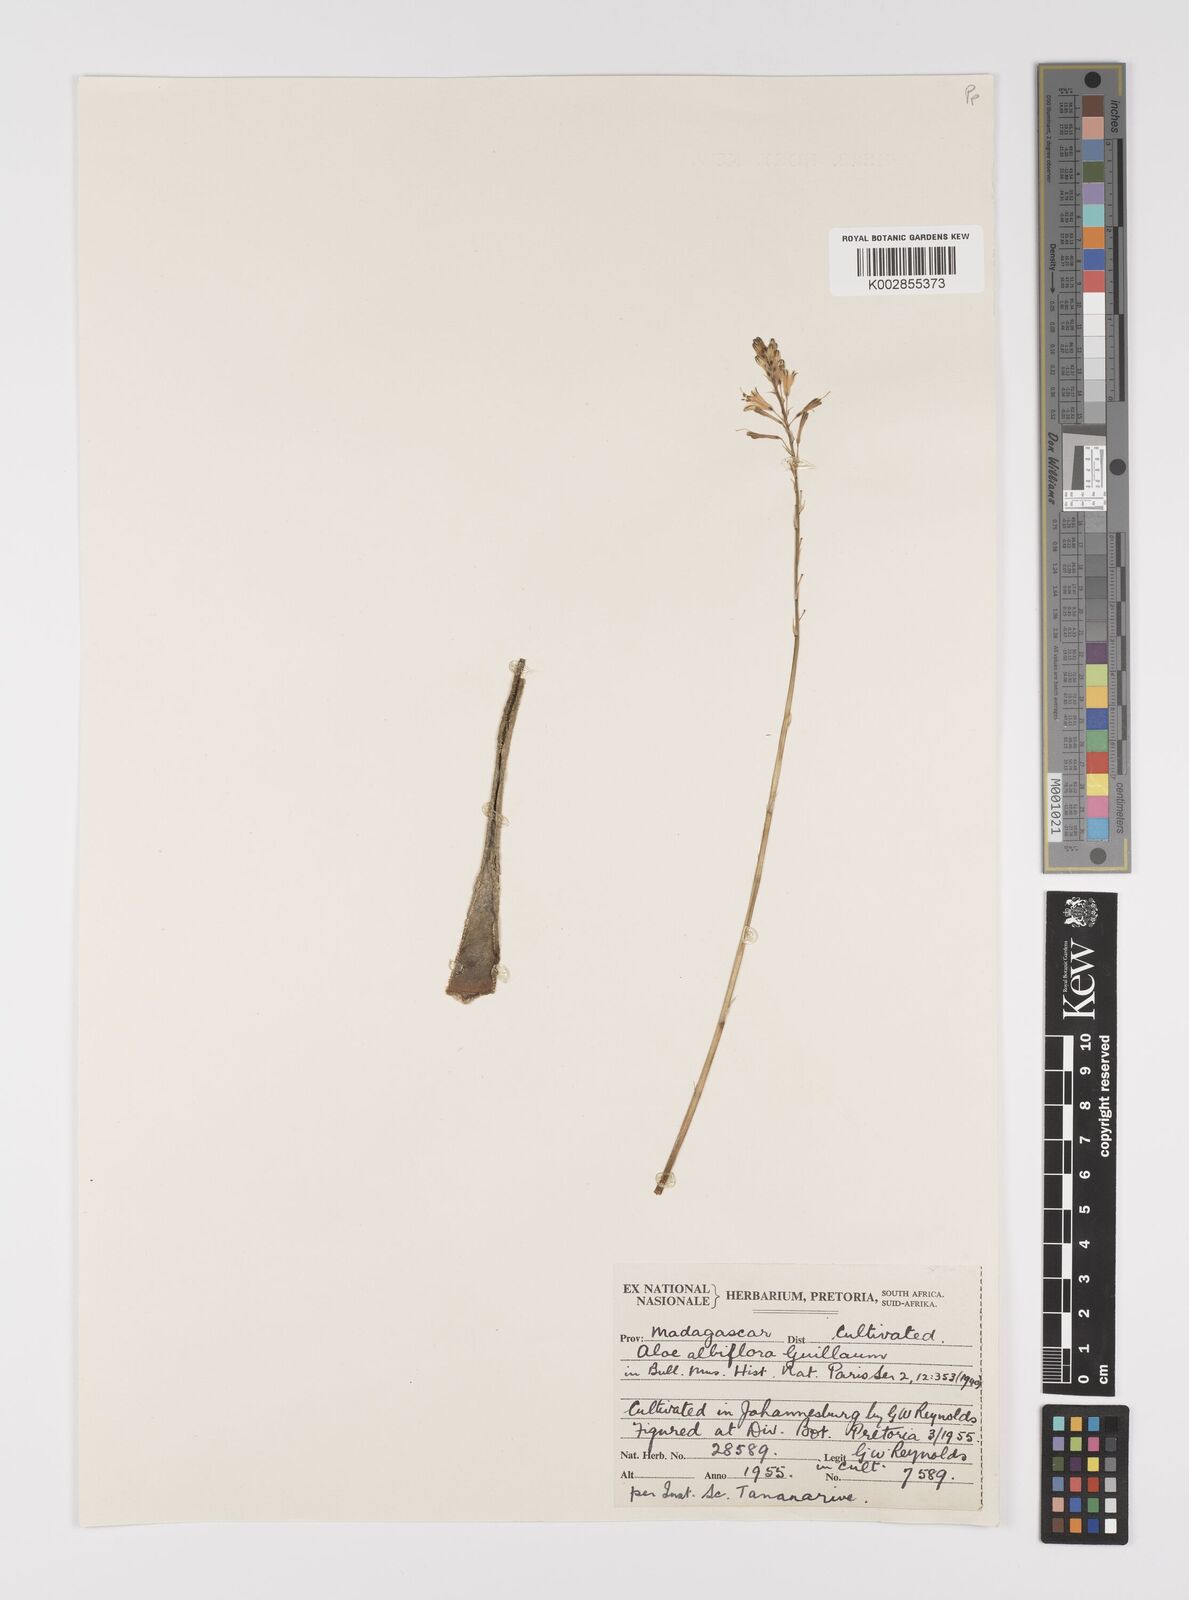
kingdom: Plantae
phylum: Tracheophyta
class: Liliopsida
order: Asparagales
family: Asphodelaceae
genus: Aloe
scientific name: Aloe albiflora
